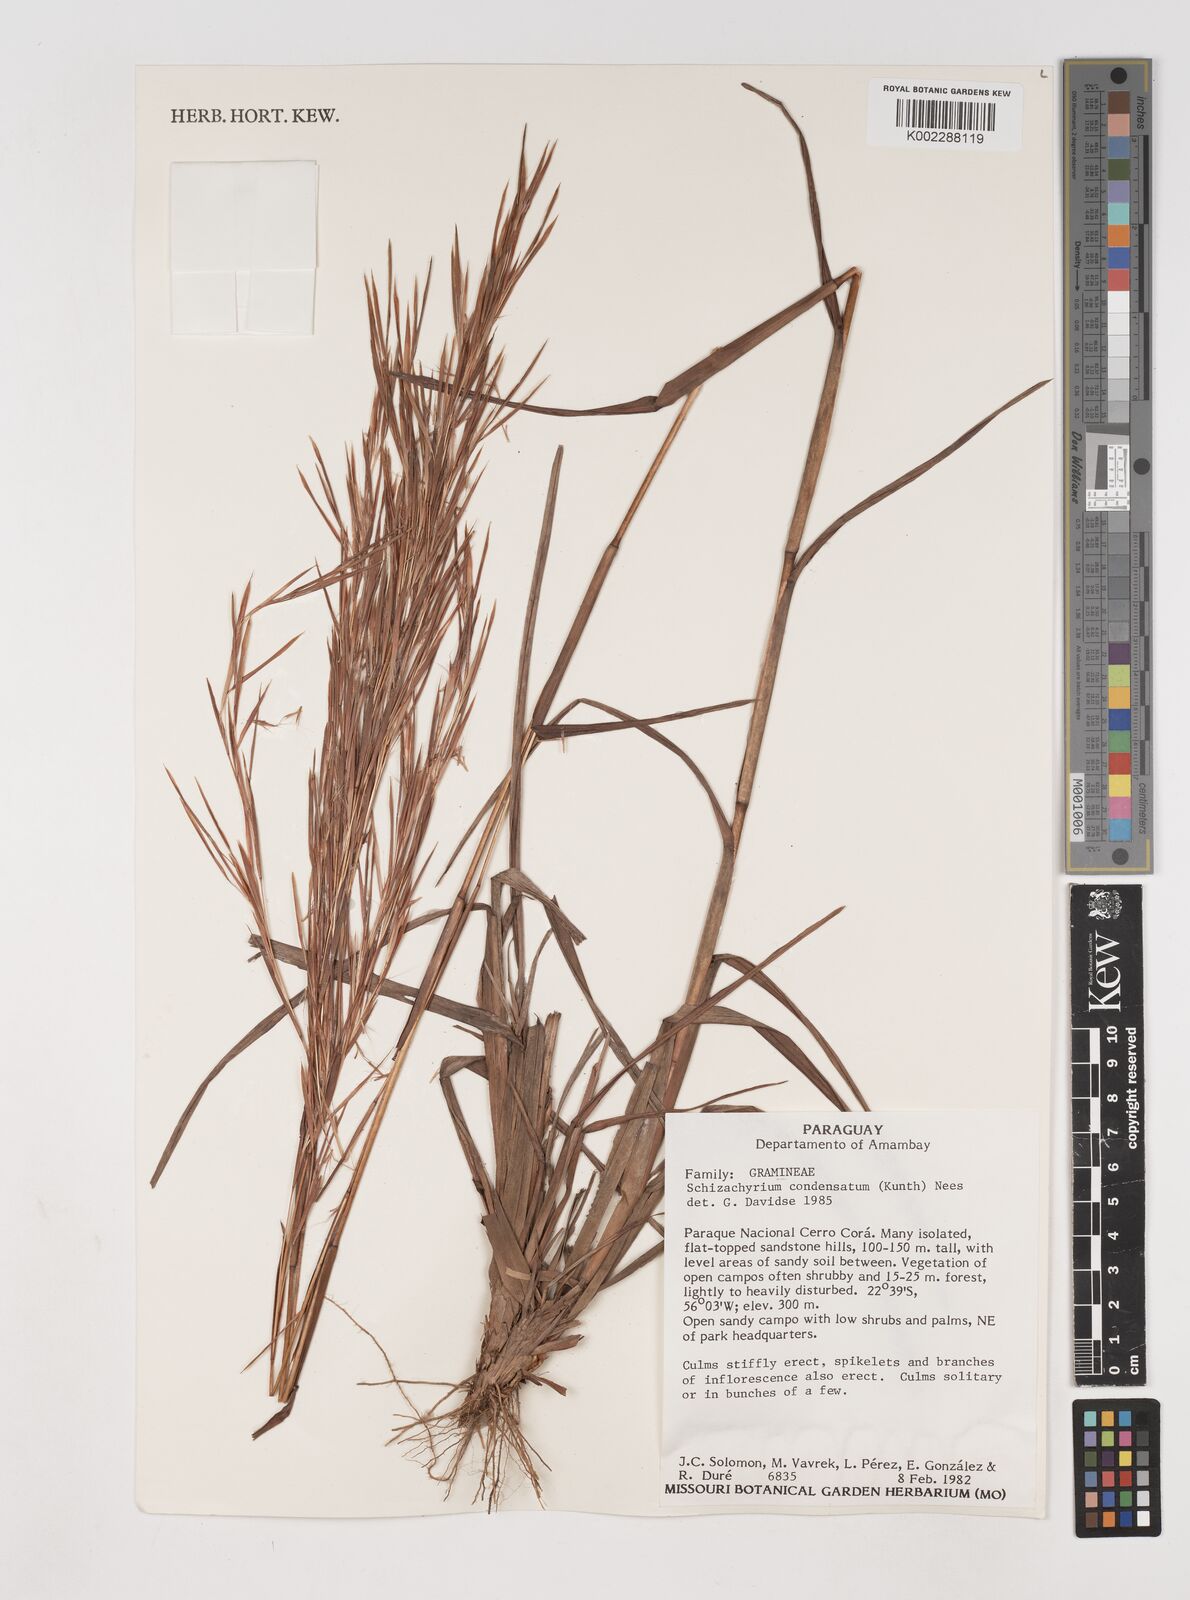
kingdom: Plantae
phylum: Tracheophyta
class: Liliopsida
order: Poales
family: Poaceae
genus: Schizachyrium
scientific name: Schizachyrium condensatum
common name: Bush beardgrass
